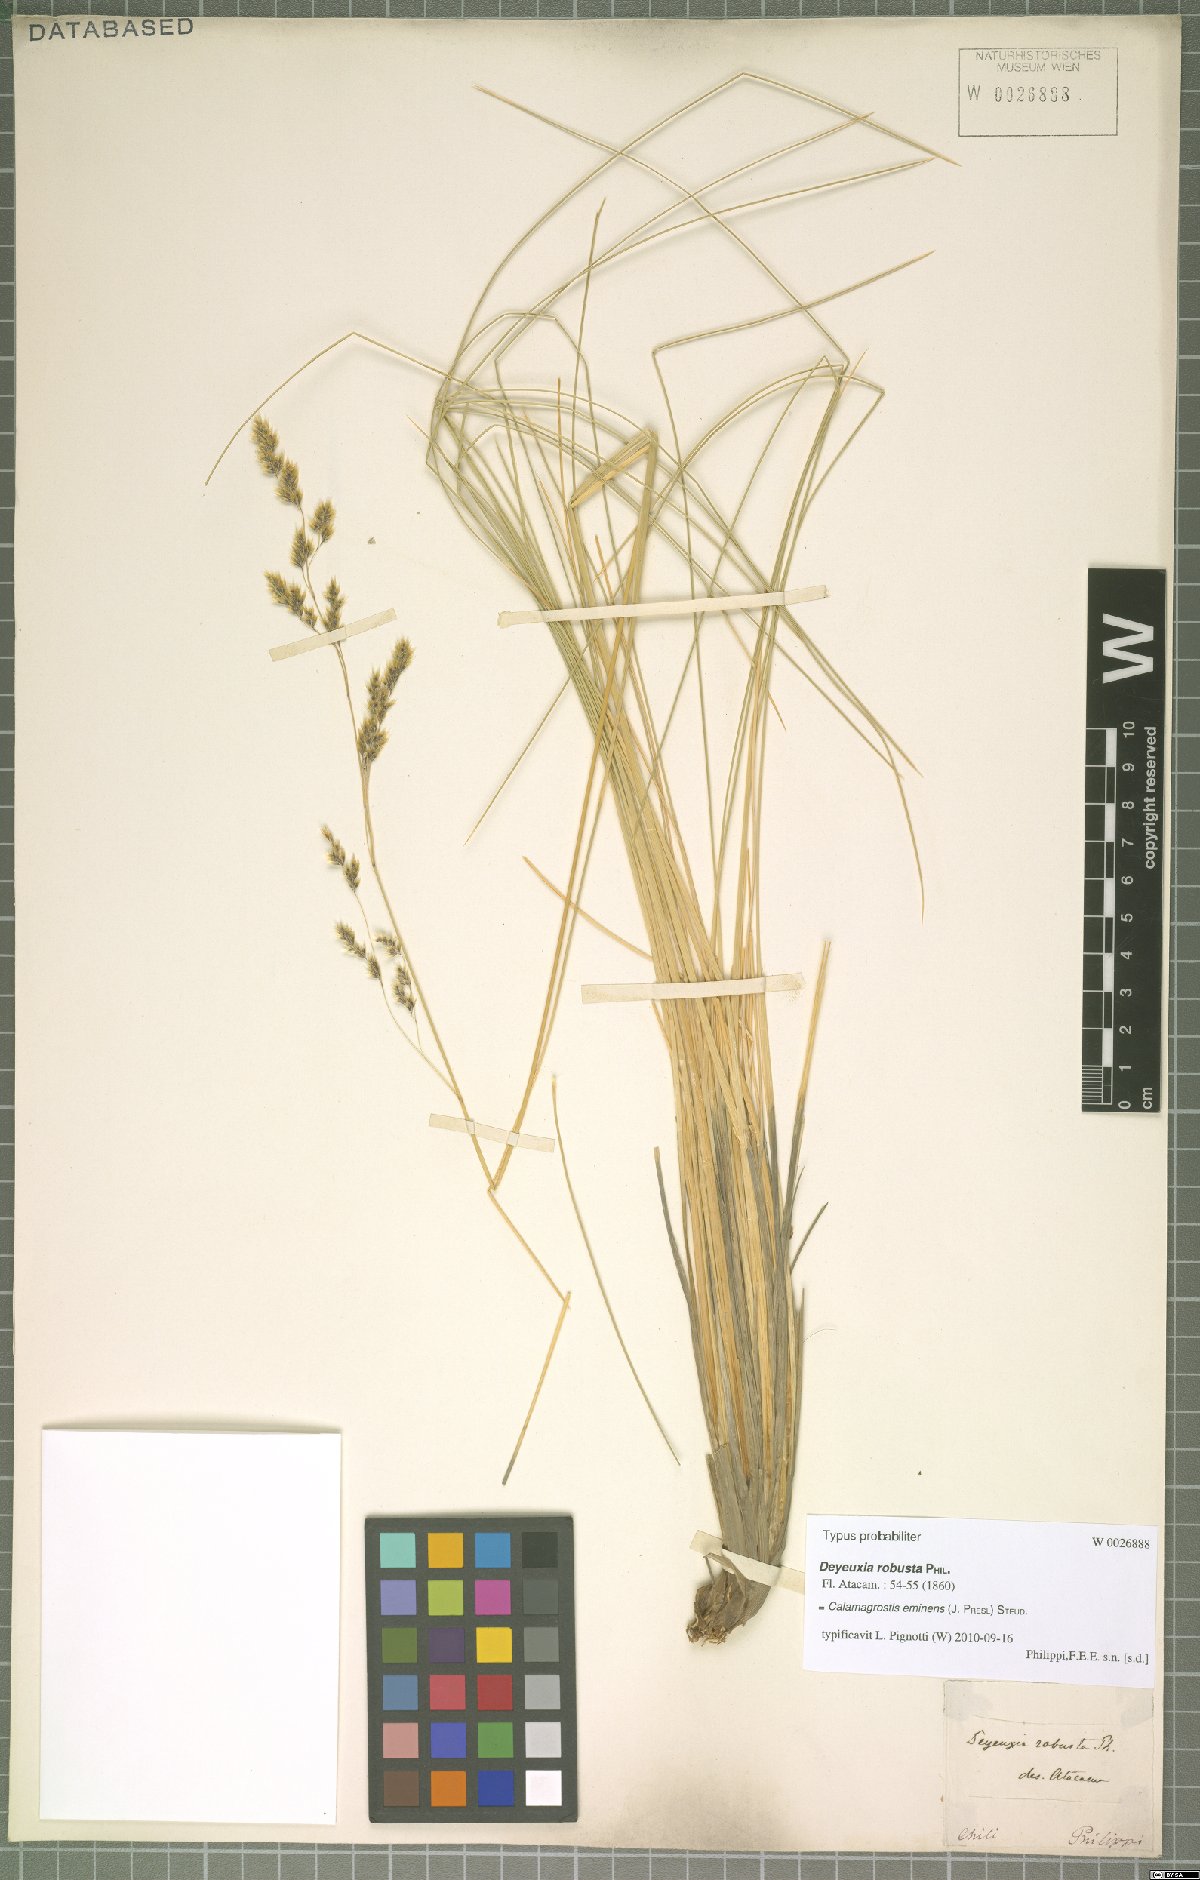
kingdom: Plantae
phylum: Tracheophyta
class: Liliopsida
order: Poales
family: Poaceae
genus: Deschampsia
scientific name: Deschampsia eminens
